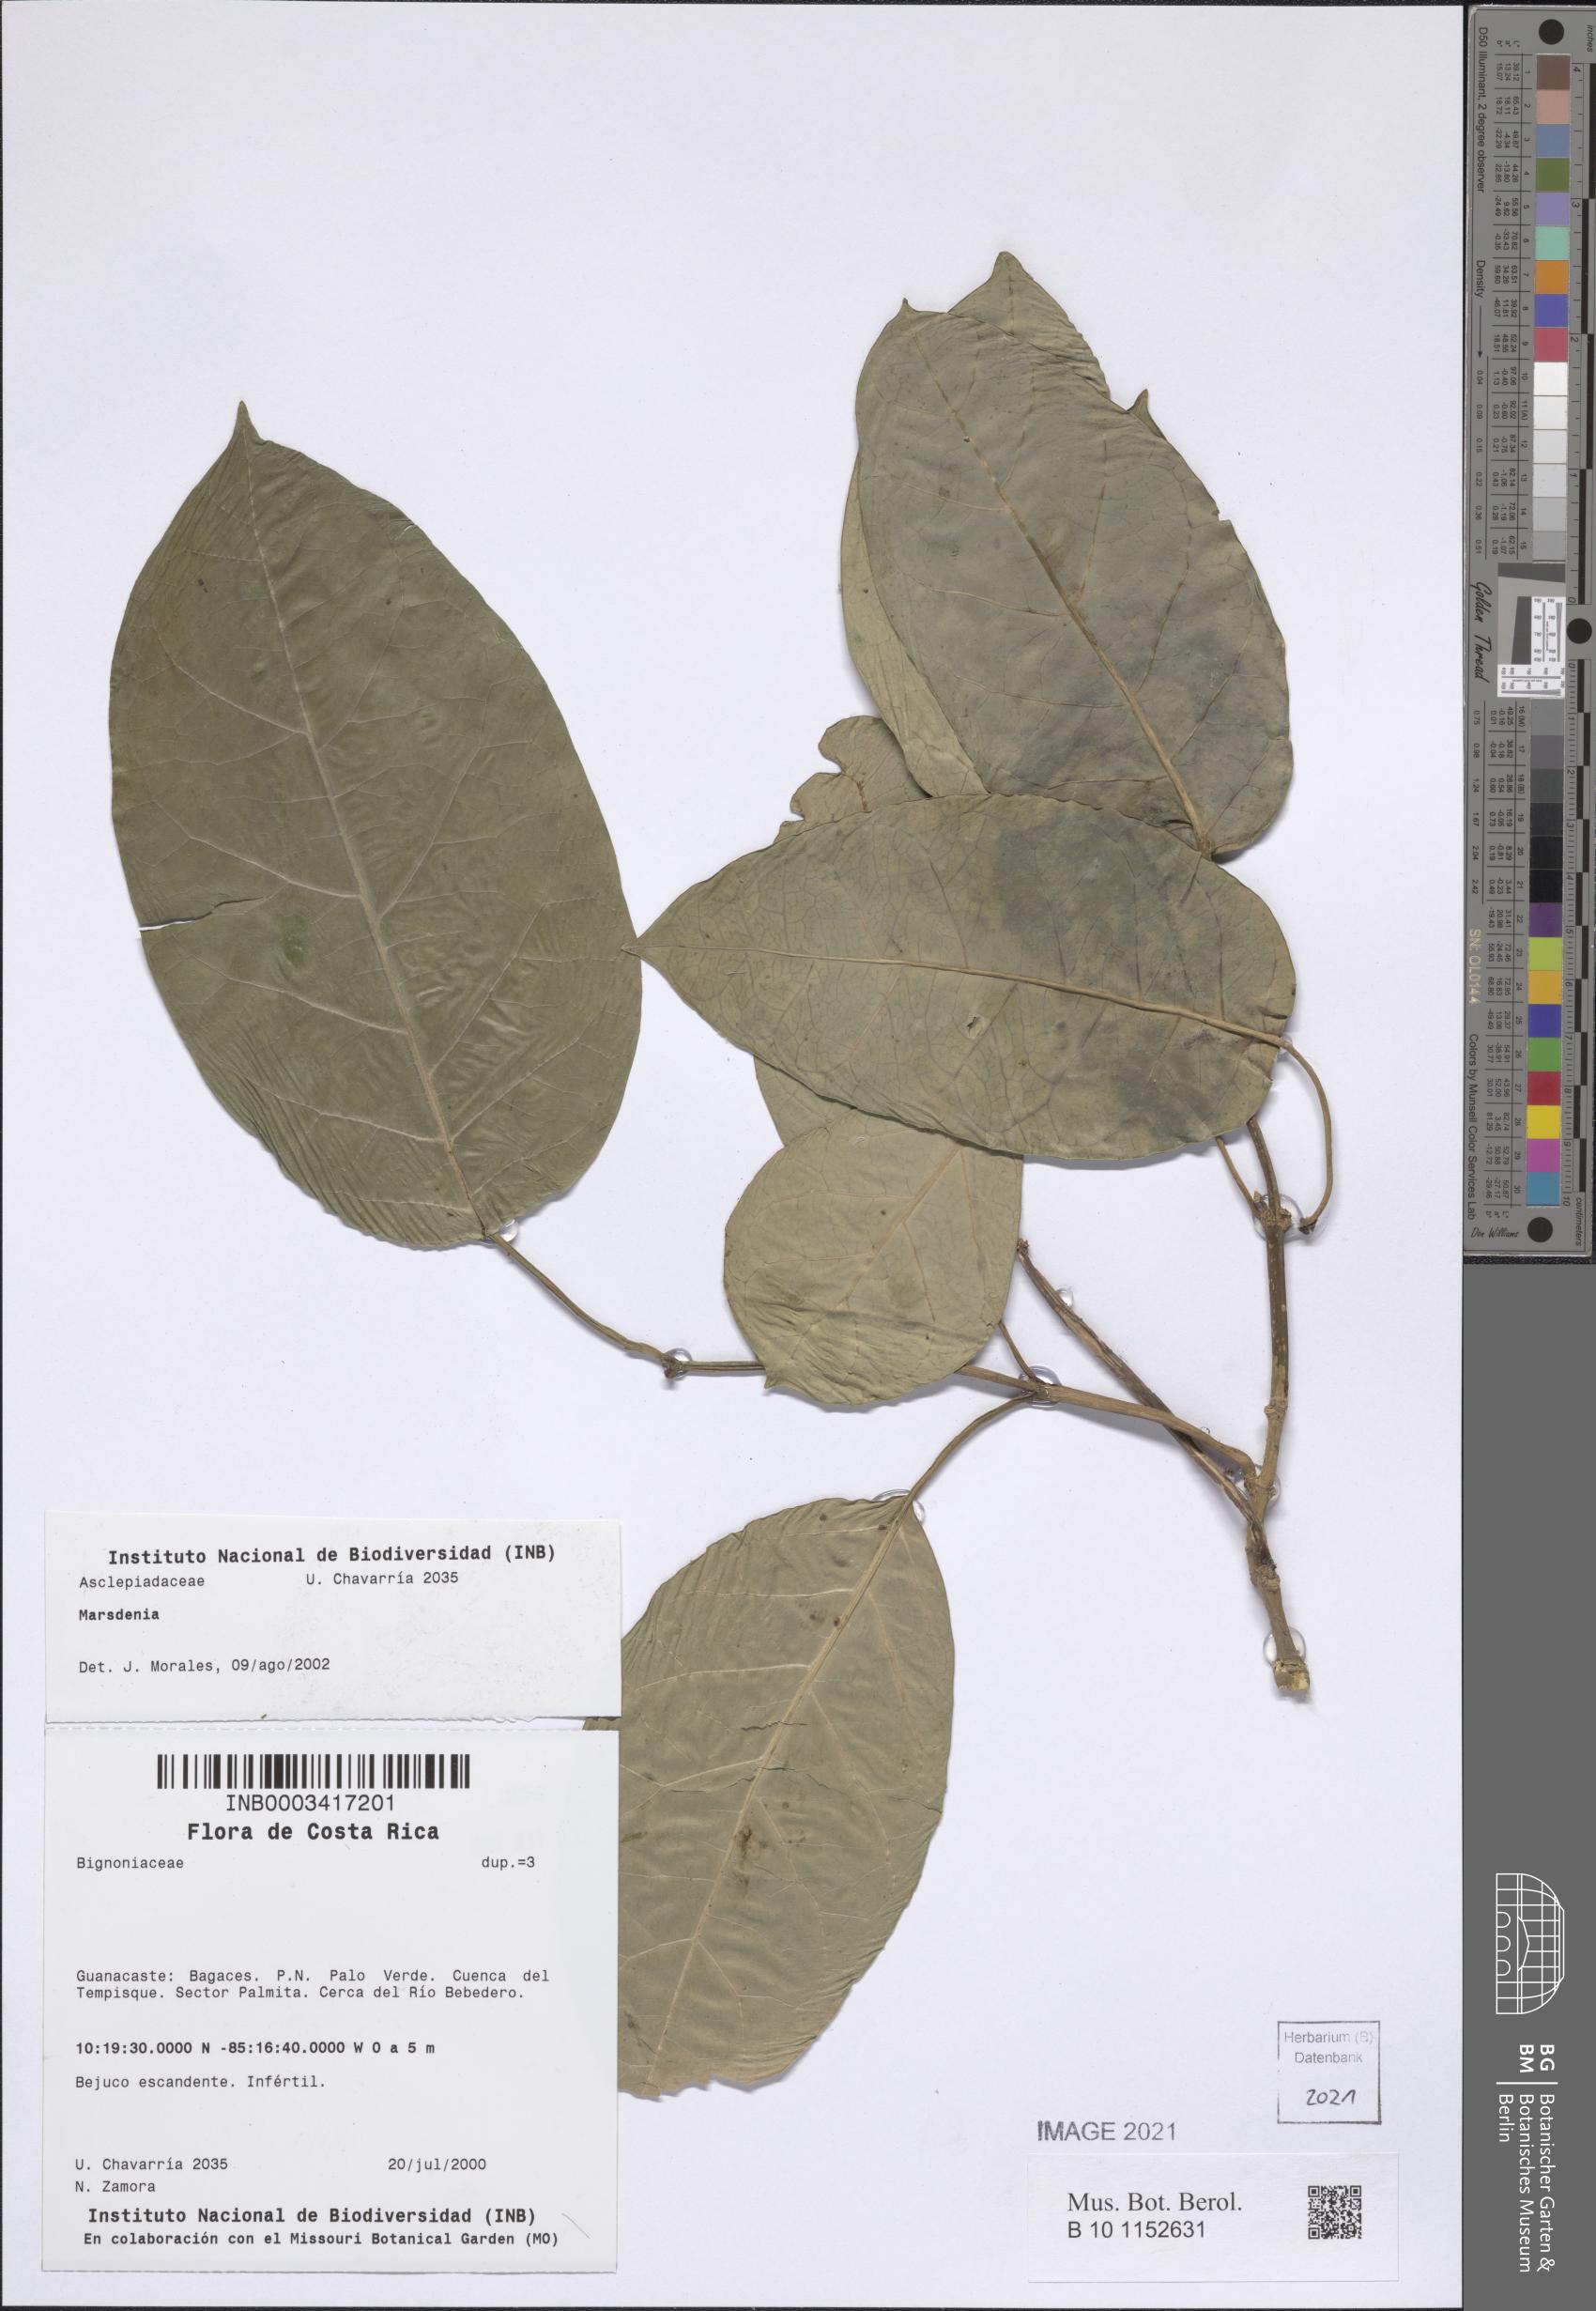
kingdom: Plantae
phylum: Tracheophyta
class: Magnoliopsida
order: Gentianales
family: Apocynaceae
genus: Marsdenia
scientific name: Marsdenia
